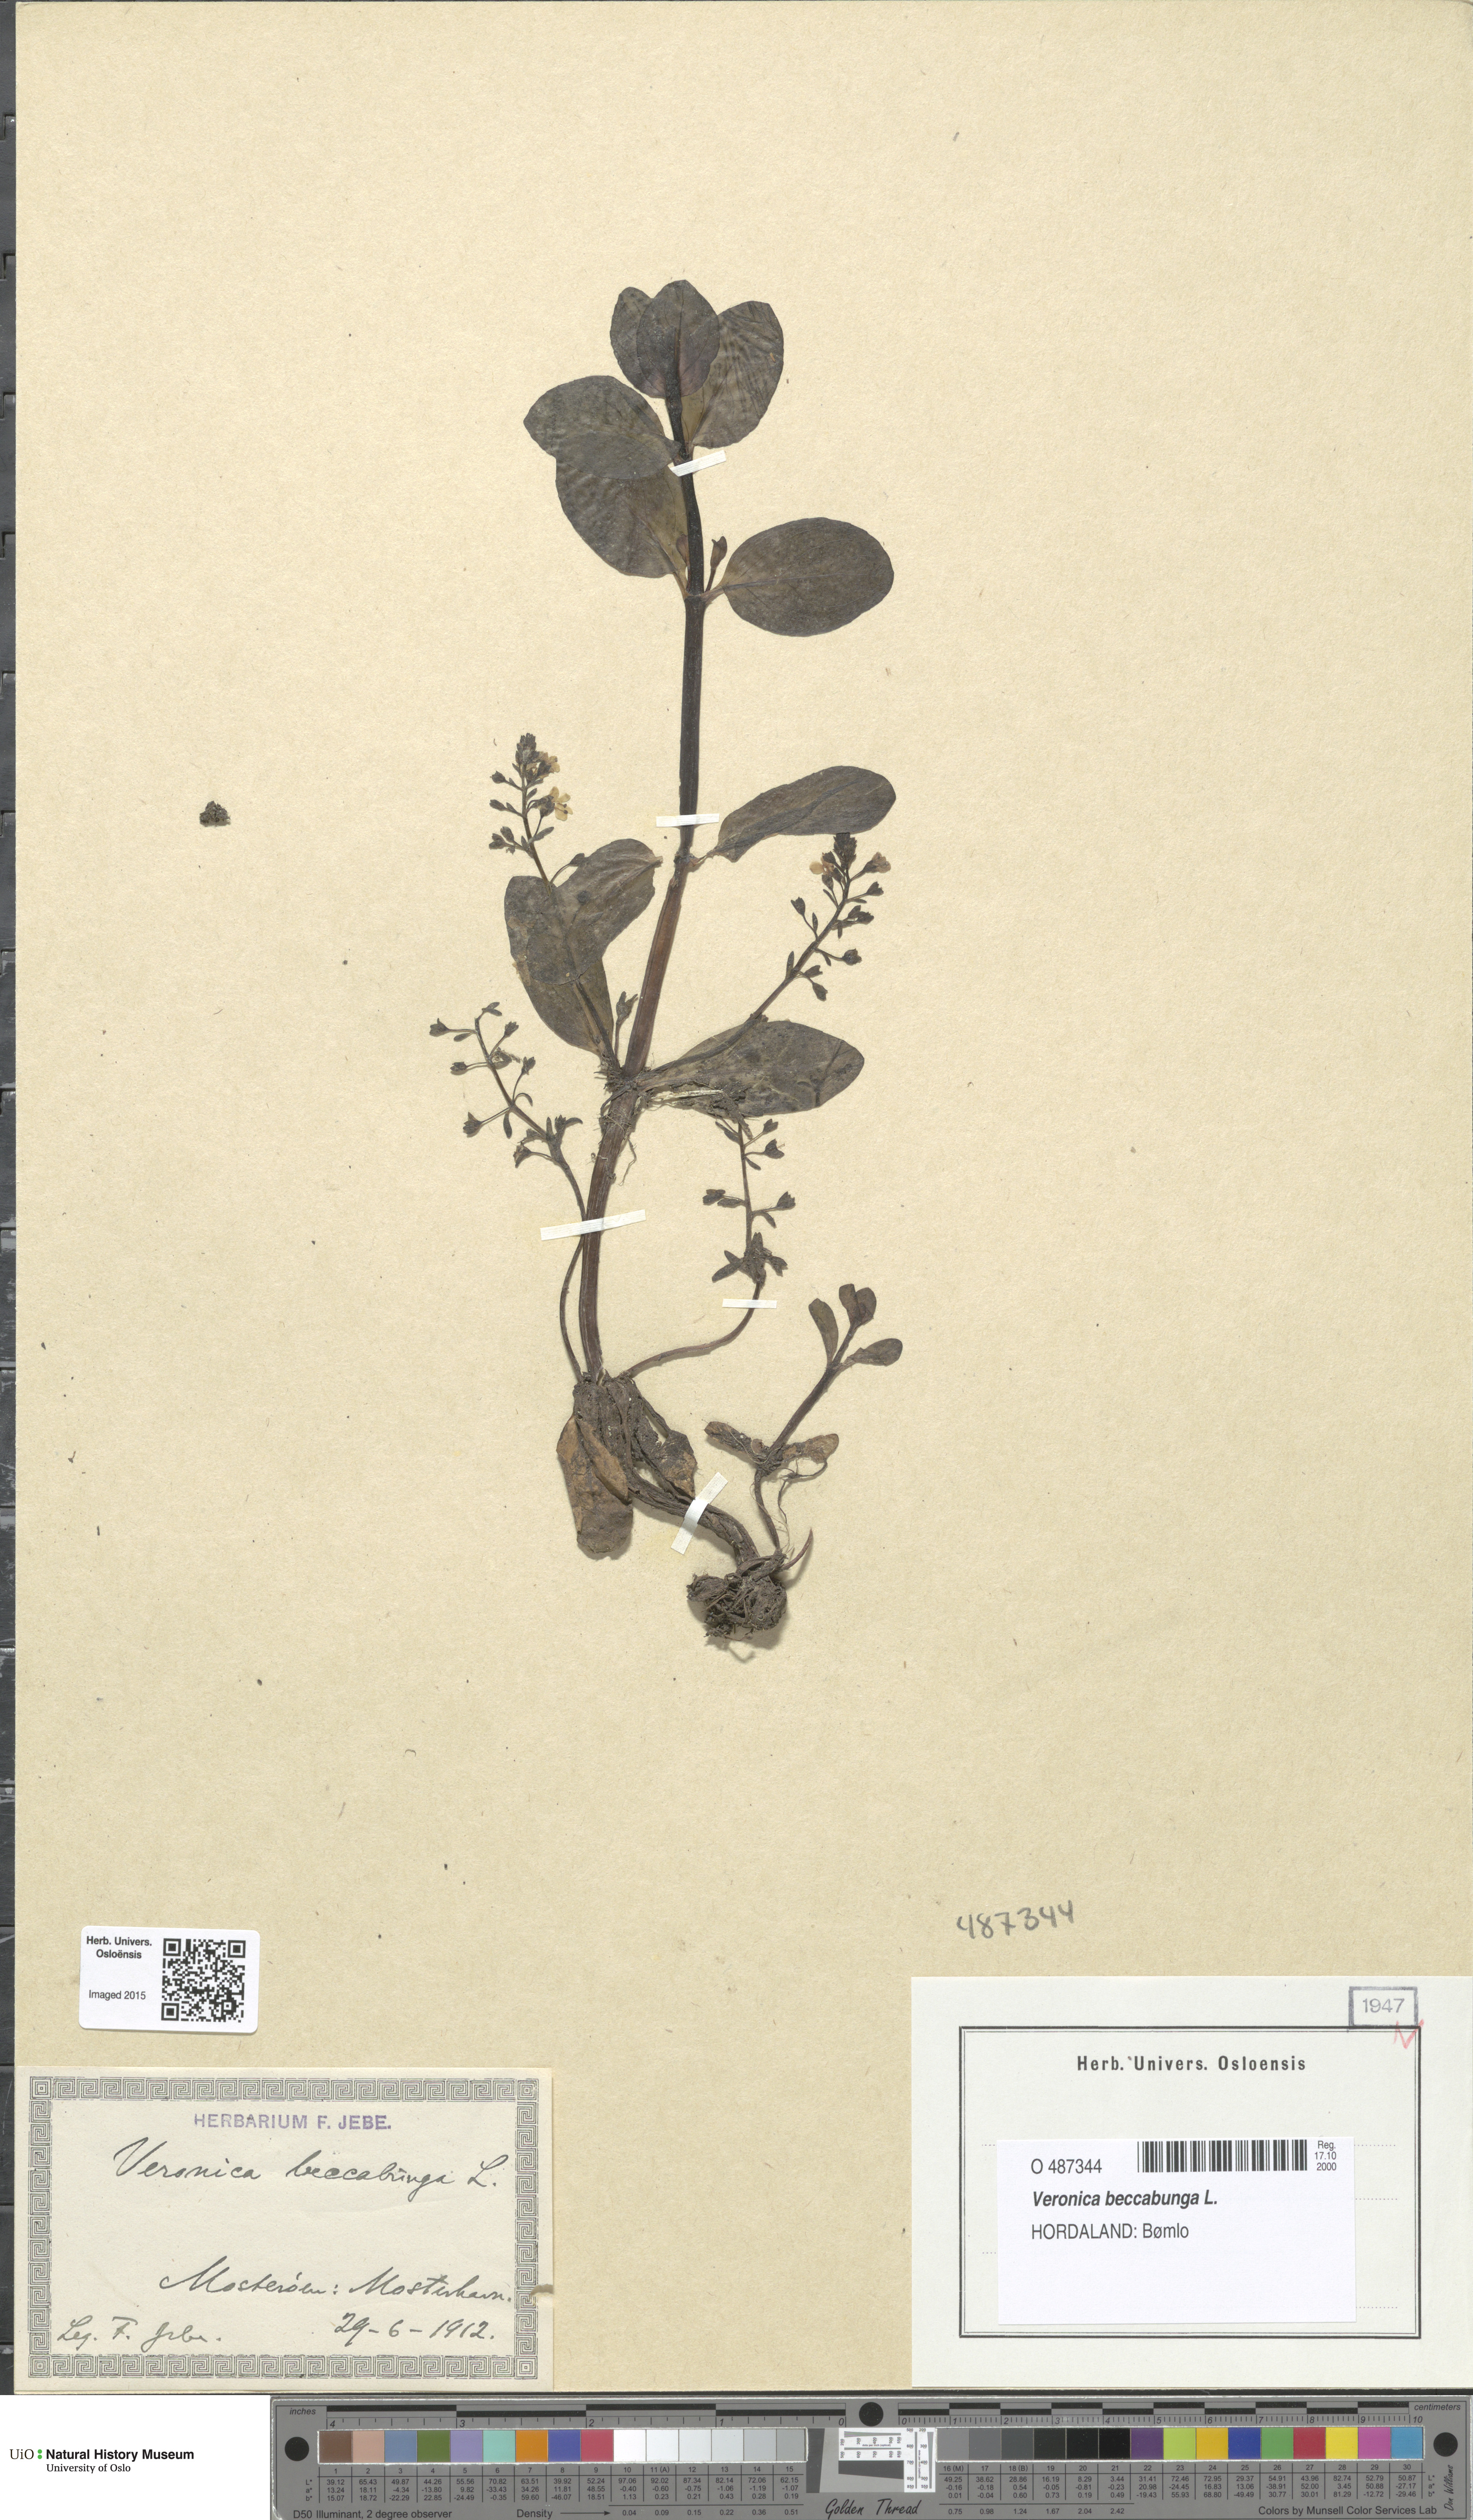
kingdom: Plantae
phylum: Tracheophyta
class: Magnoliopsida
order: Lamiales
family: Plantaginaceae
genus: Veronica
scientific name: Veronica beccabunga
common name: Brooklime
